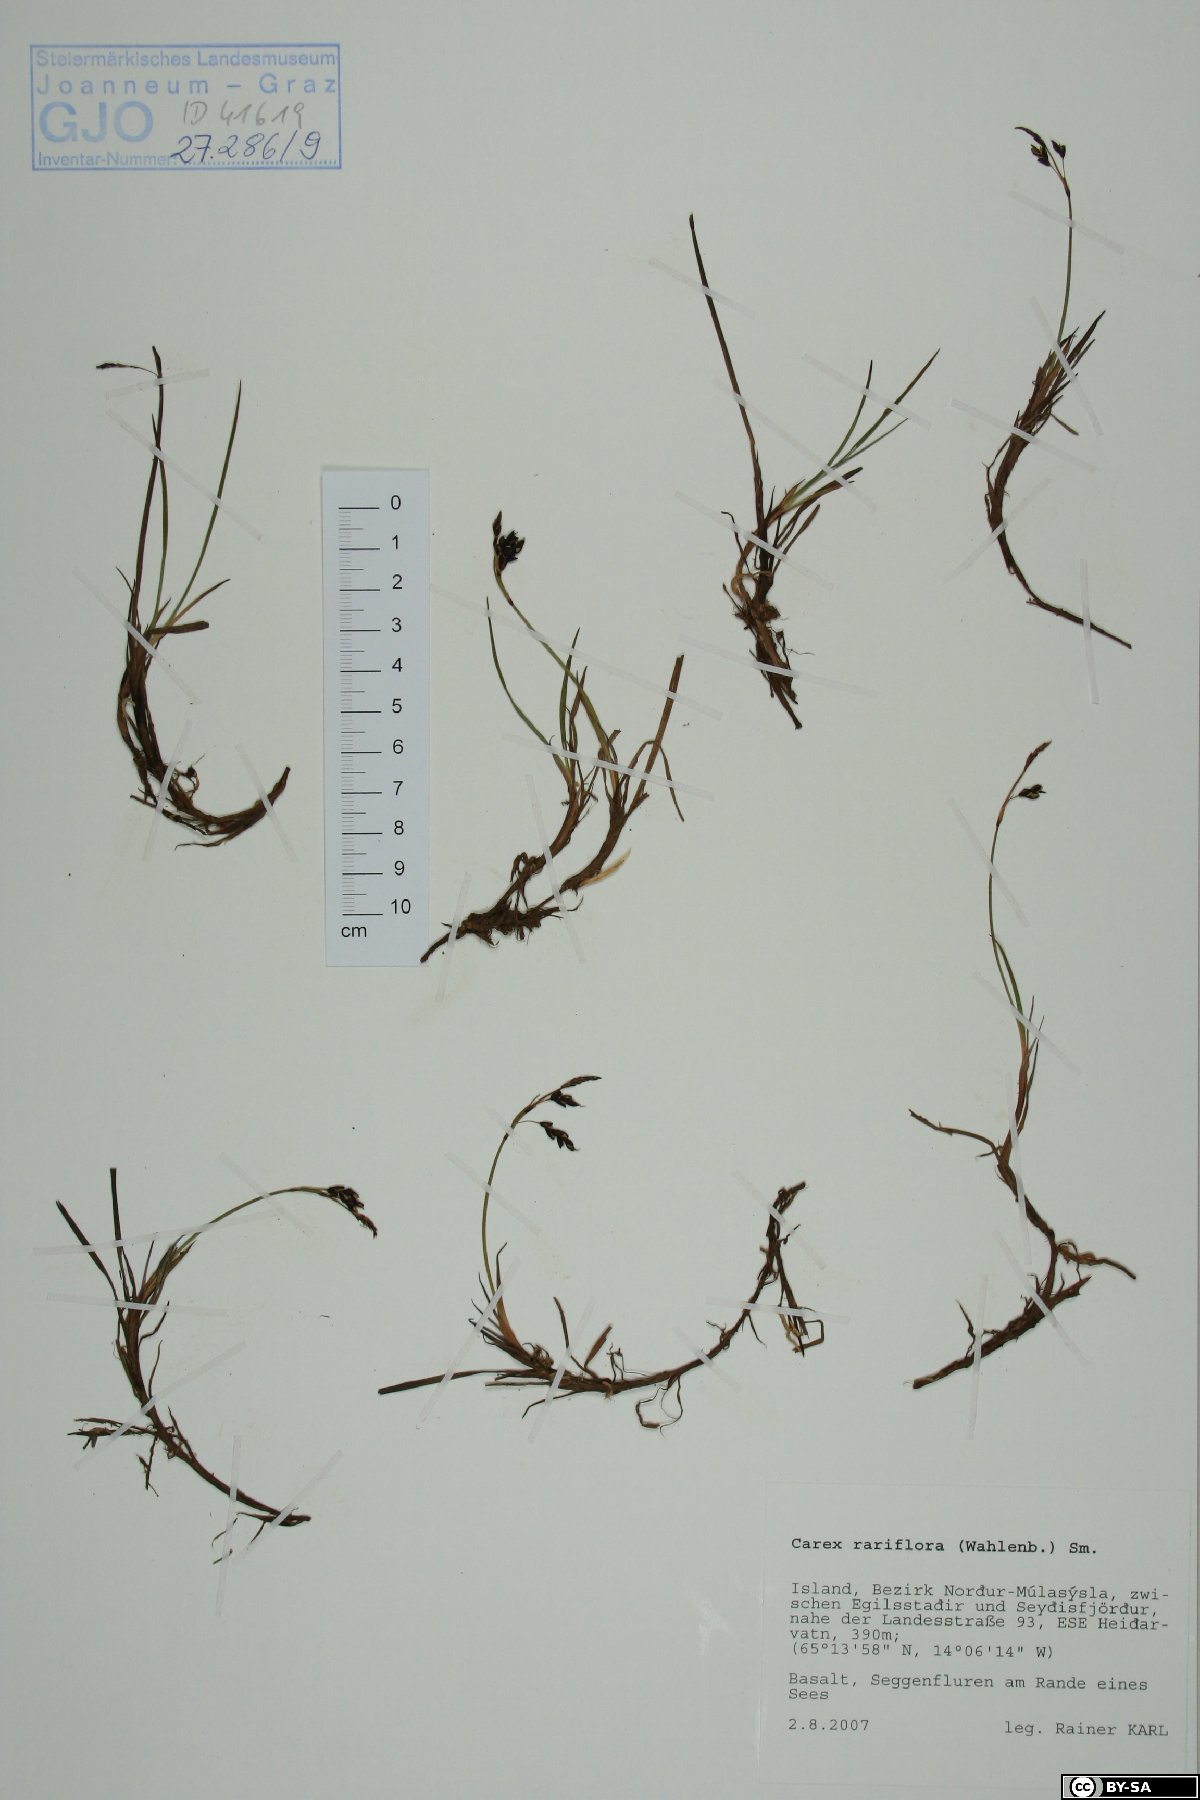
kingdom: Plantae
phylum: Tracheophyta
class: Liliopsida
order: Poales
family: Cyperaceae
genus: Carex
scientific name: Carex rariflora
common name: Loose-flowered alpine sedge
